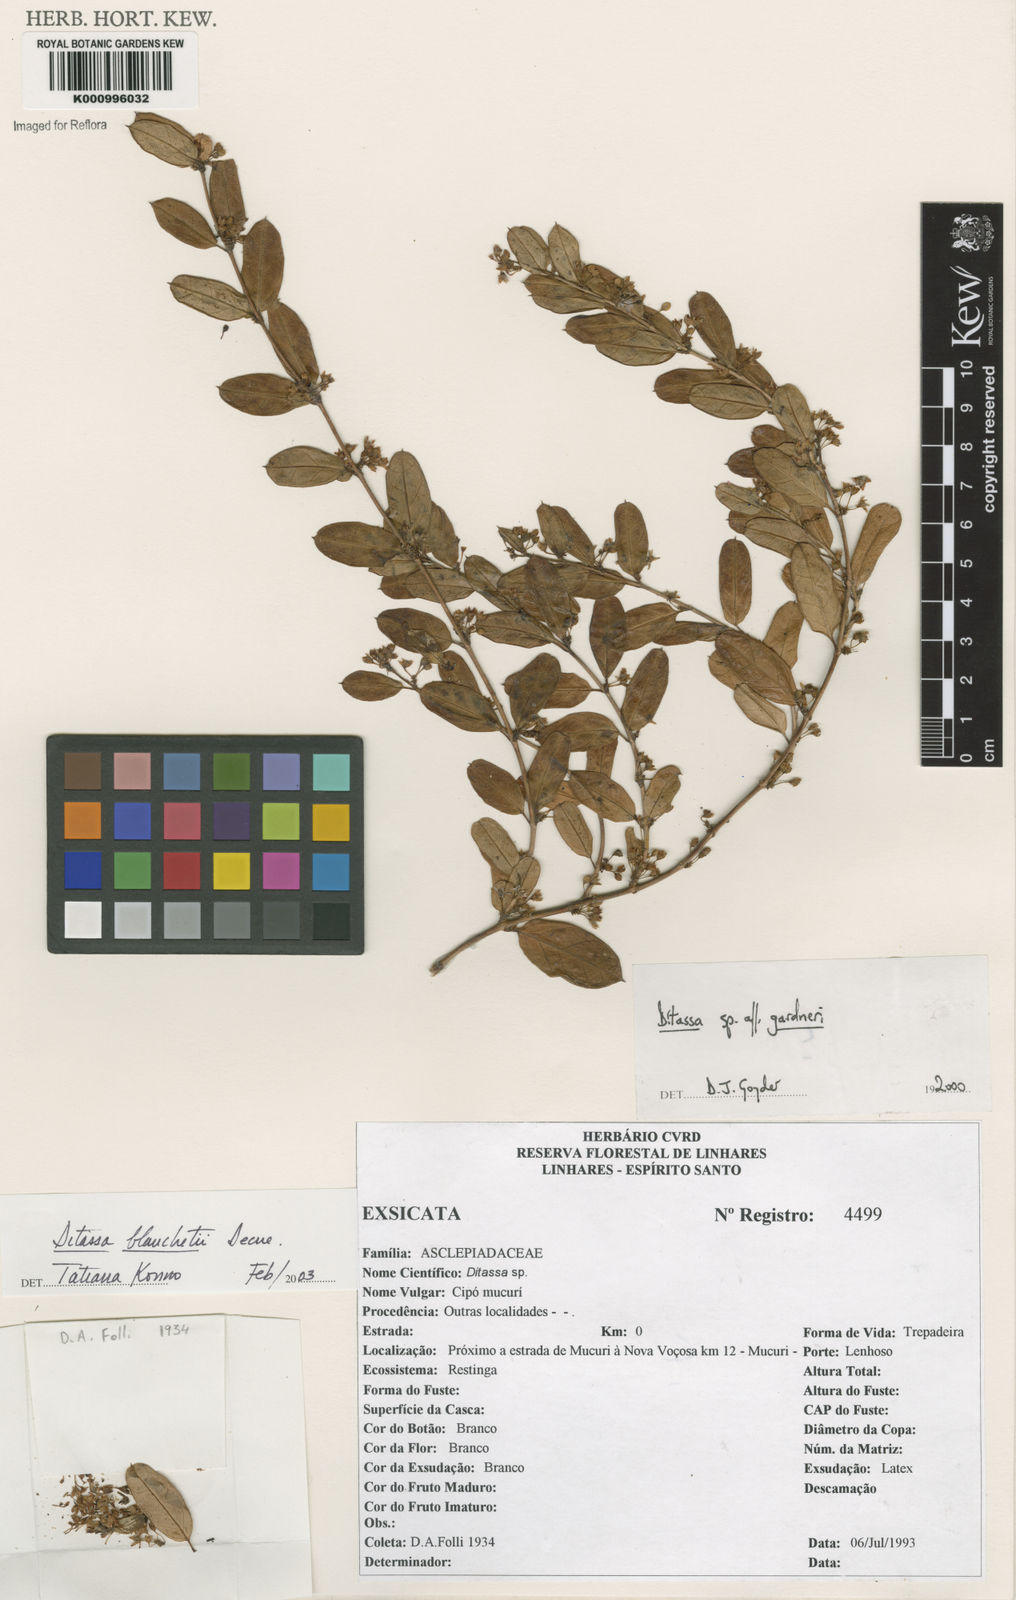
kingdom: Plantae
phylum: Tracheophyta
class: Magnoliopsida
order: Gentianales
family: Apocynaceae
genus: Ditassa
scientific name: Ditassa blanchetii
